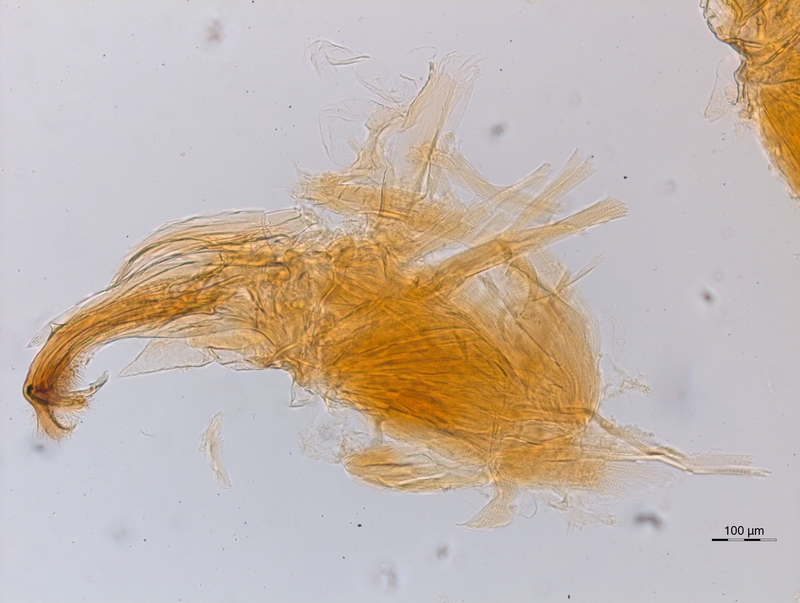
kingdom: Animalia
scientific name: Animalia
